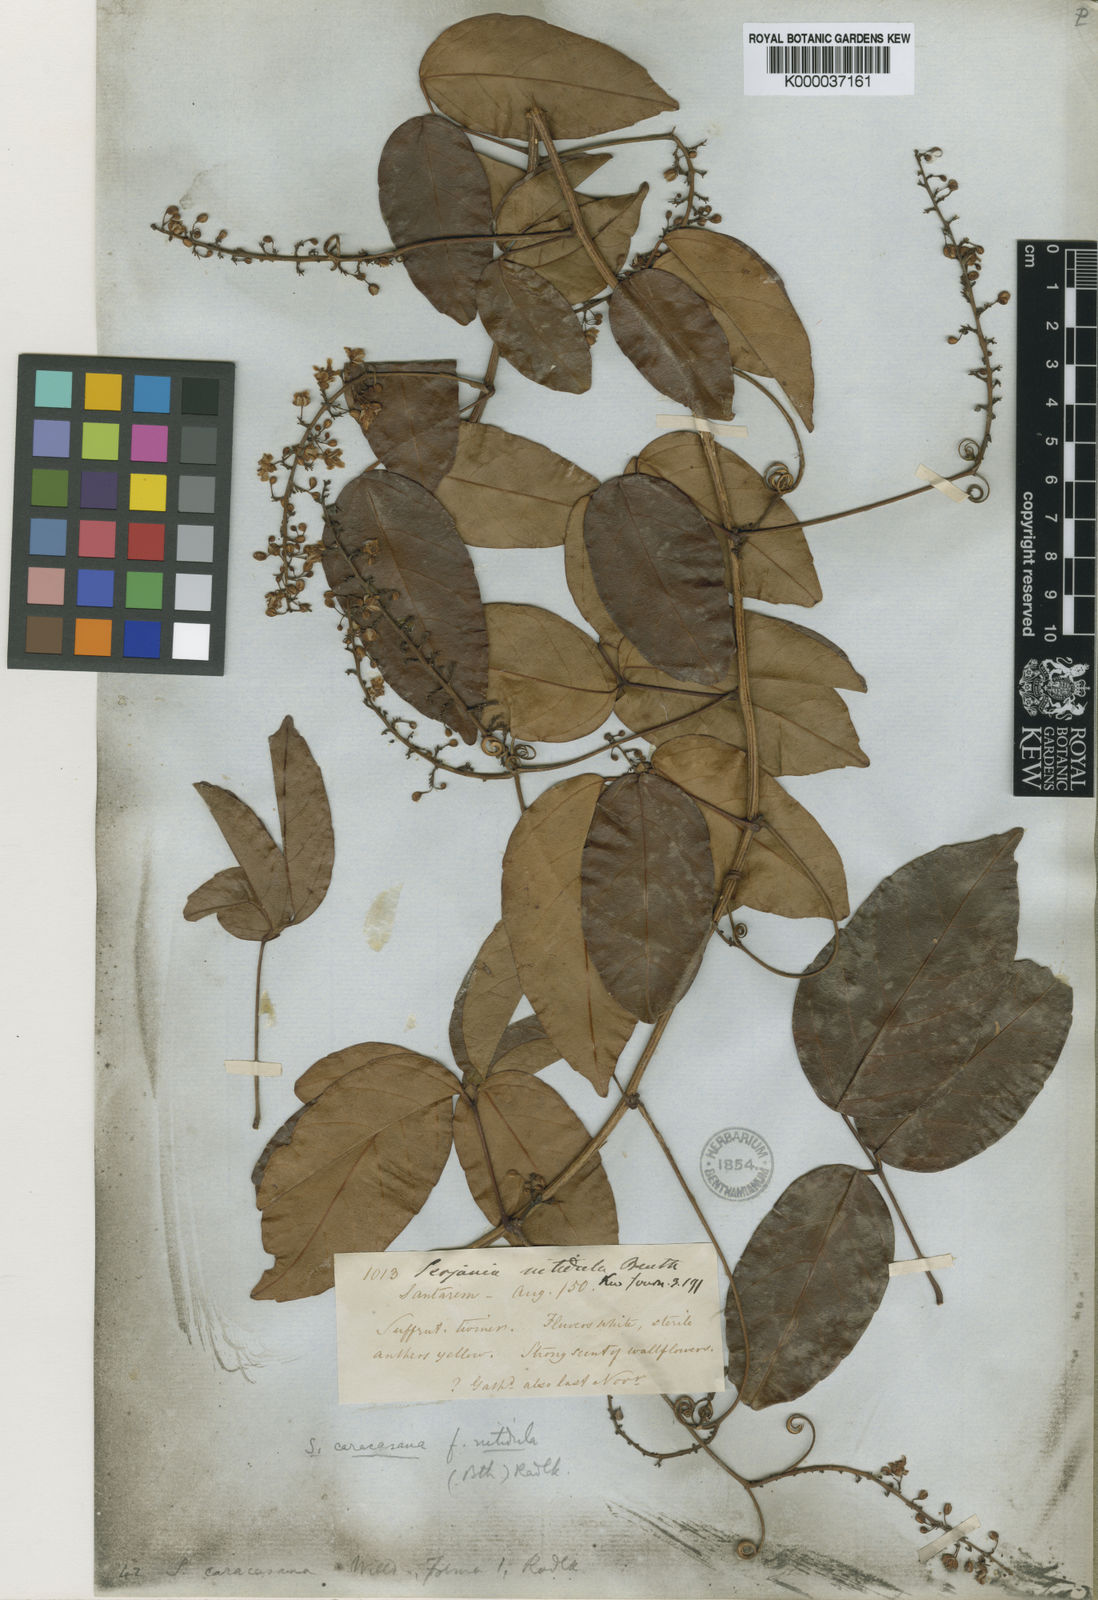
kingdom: Plantae
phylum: Tracheophyta
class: Magnoliopsida
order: Sapindales
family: Sapindaceae
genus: Serjania
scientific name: Serjania
